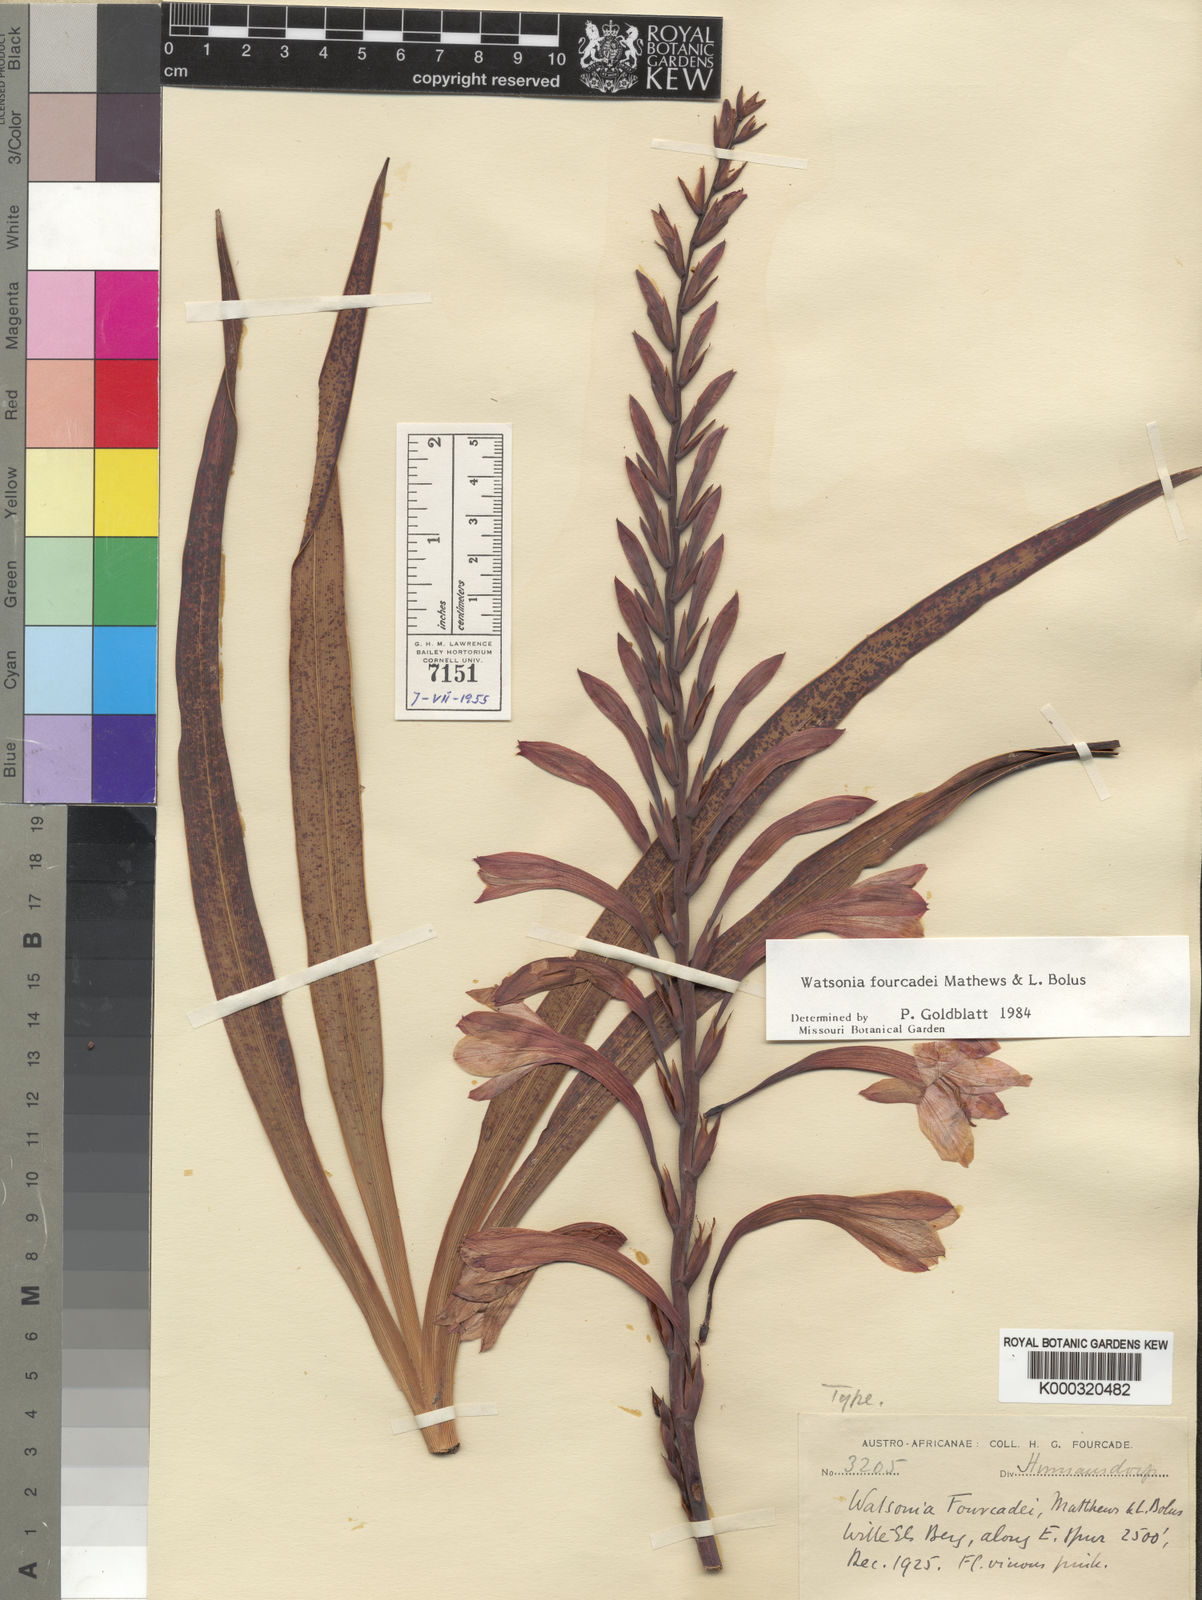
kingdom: Plantae
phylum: Tracheophyta
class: Liliopsida
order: Asparagales
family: Iridaceae
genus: Watsonia
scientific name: Watsonia fourcadei
